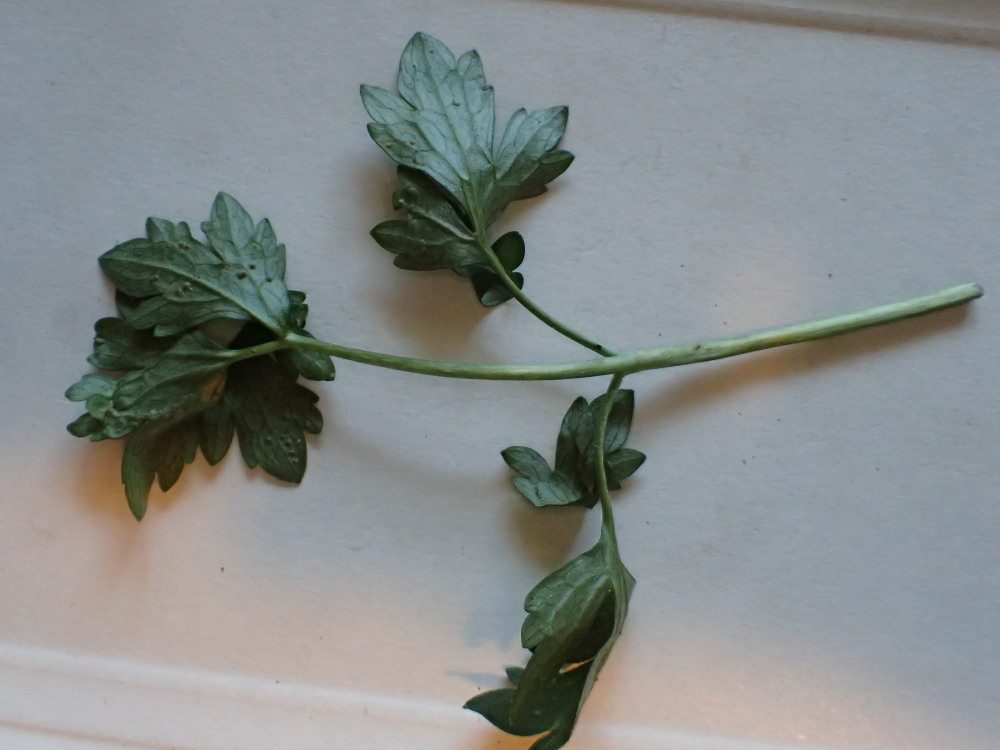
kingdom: Fungi
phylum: Basidiomycota
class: Pucciniomycetes
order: Pucciniales
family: Pucciniaceae
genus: Puccinia
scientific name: Puccinia recondita
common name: Brown rust of wheat
